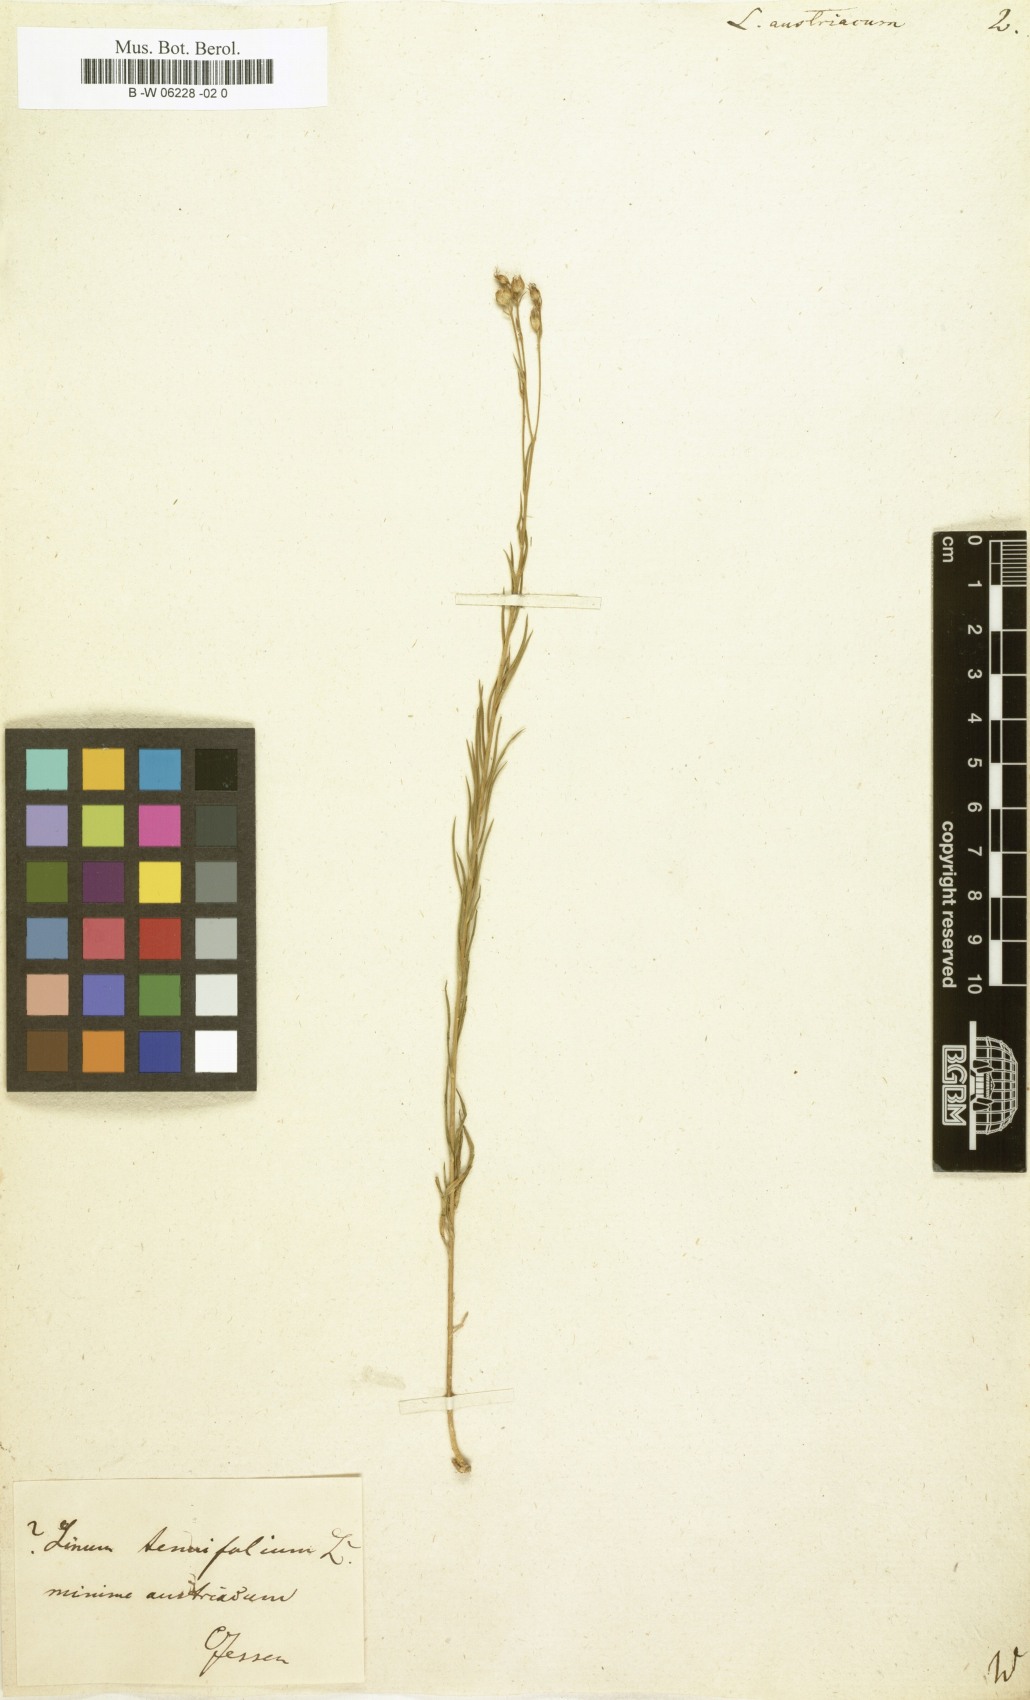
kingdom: Plantae
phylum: Tracheophyta
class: Magnoliopsida
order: Malpighiales
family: Linaceae
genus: Linum
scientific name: Linum austriacum
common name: Austrian flax
